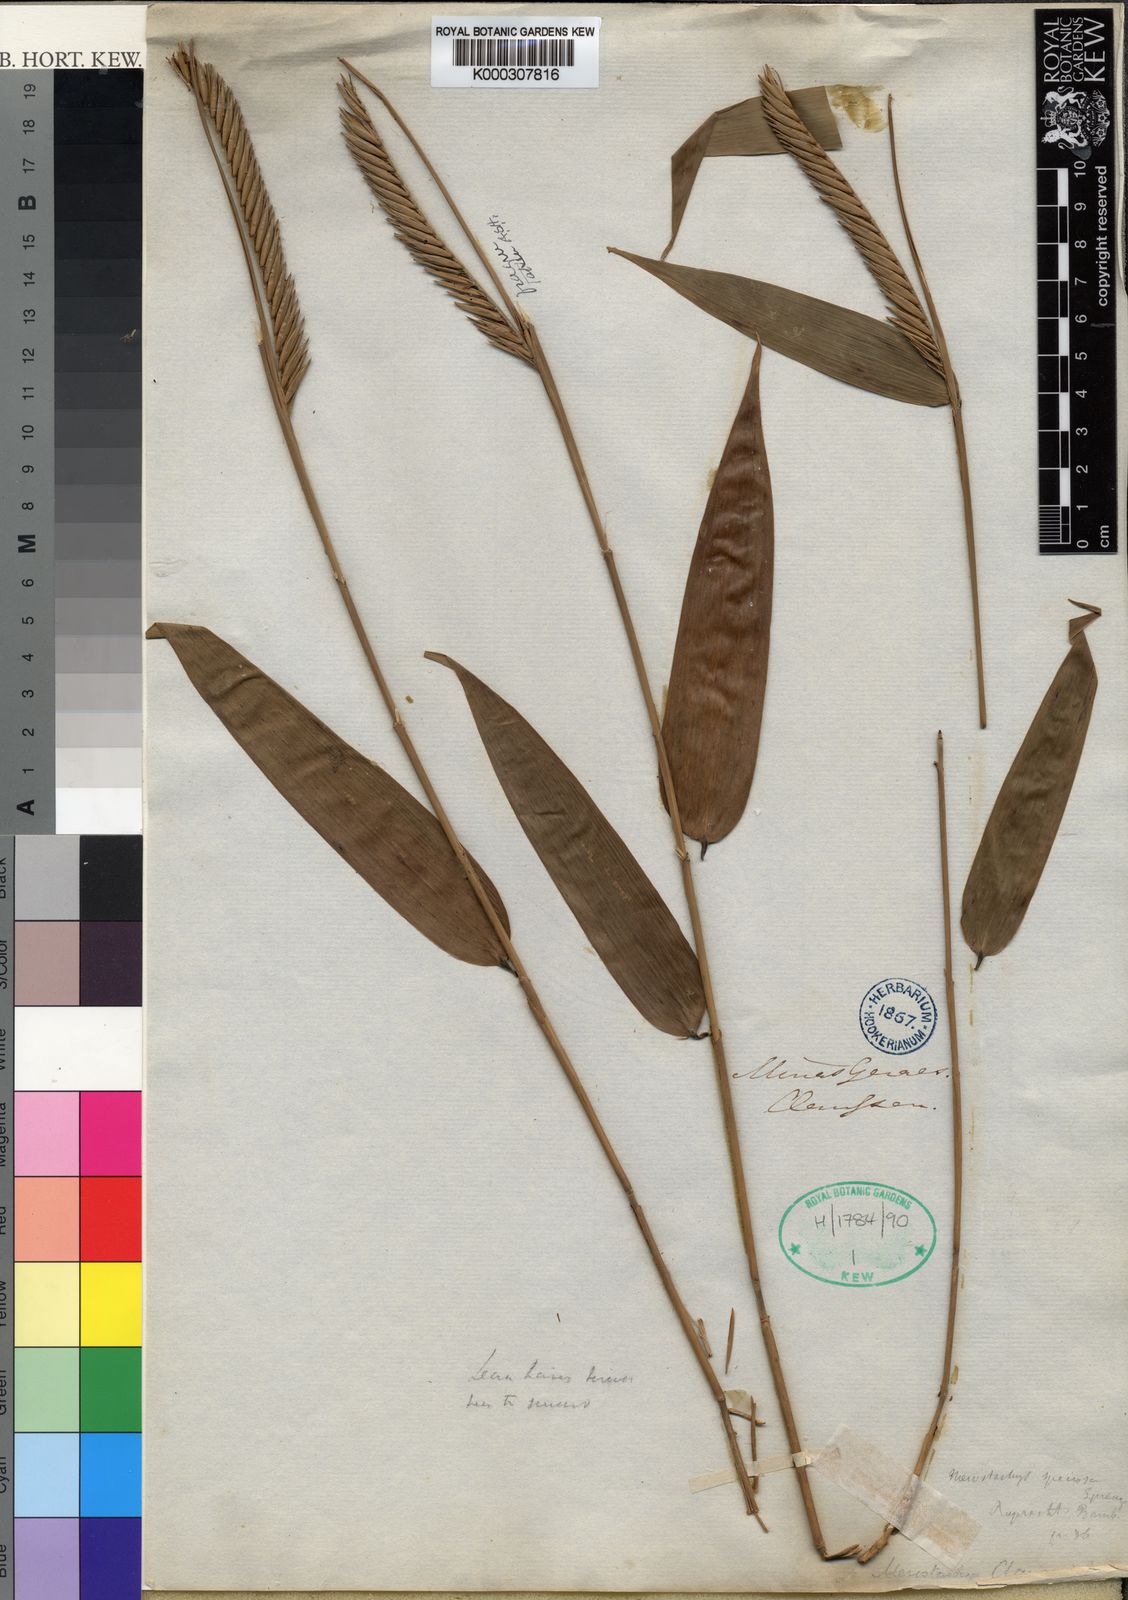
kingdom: Plantae
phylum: Tracheophyta
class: Liliopsida
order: Poales
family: Poaceae
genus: Merostachys
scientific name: Merostachys claussenii
